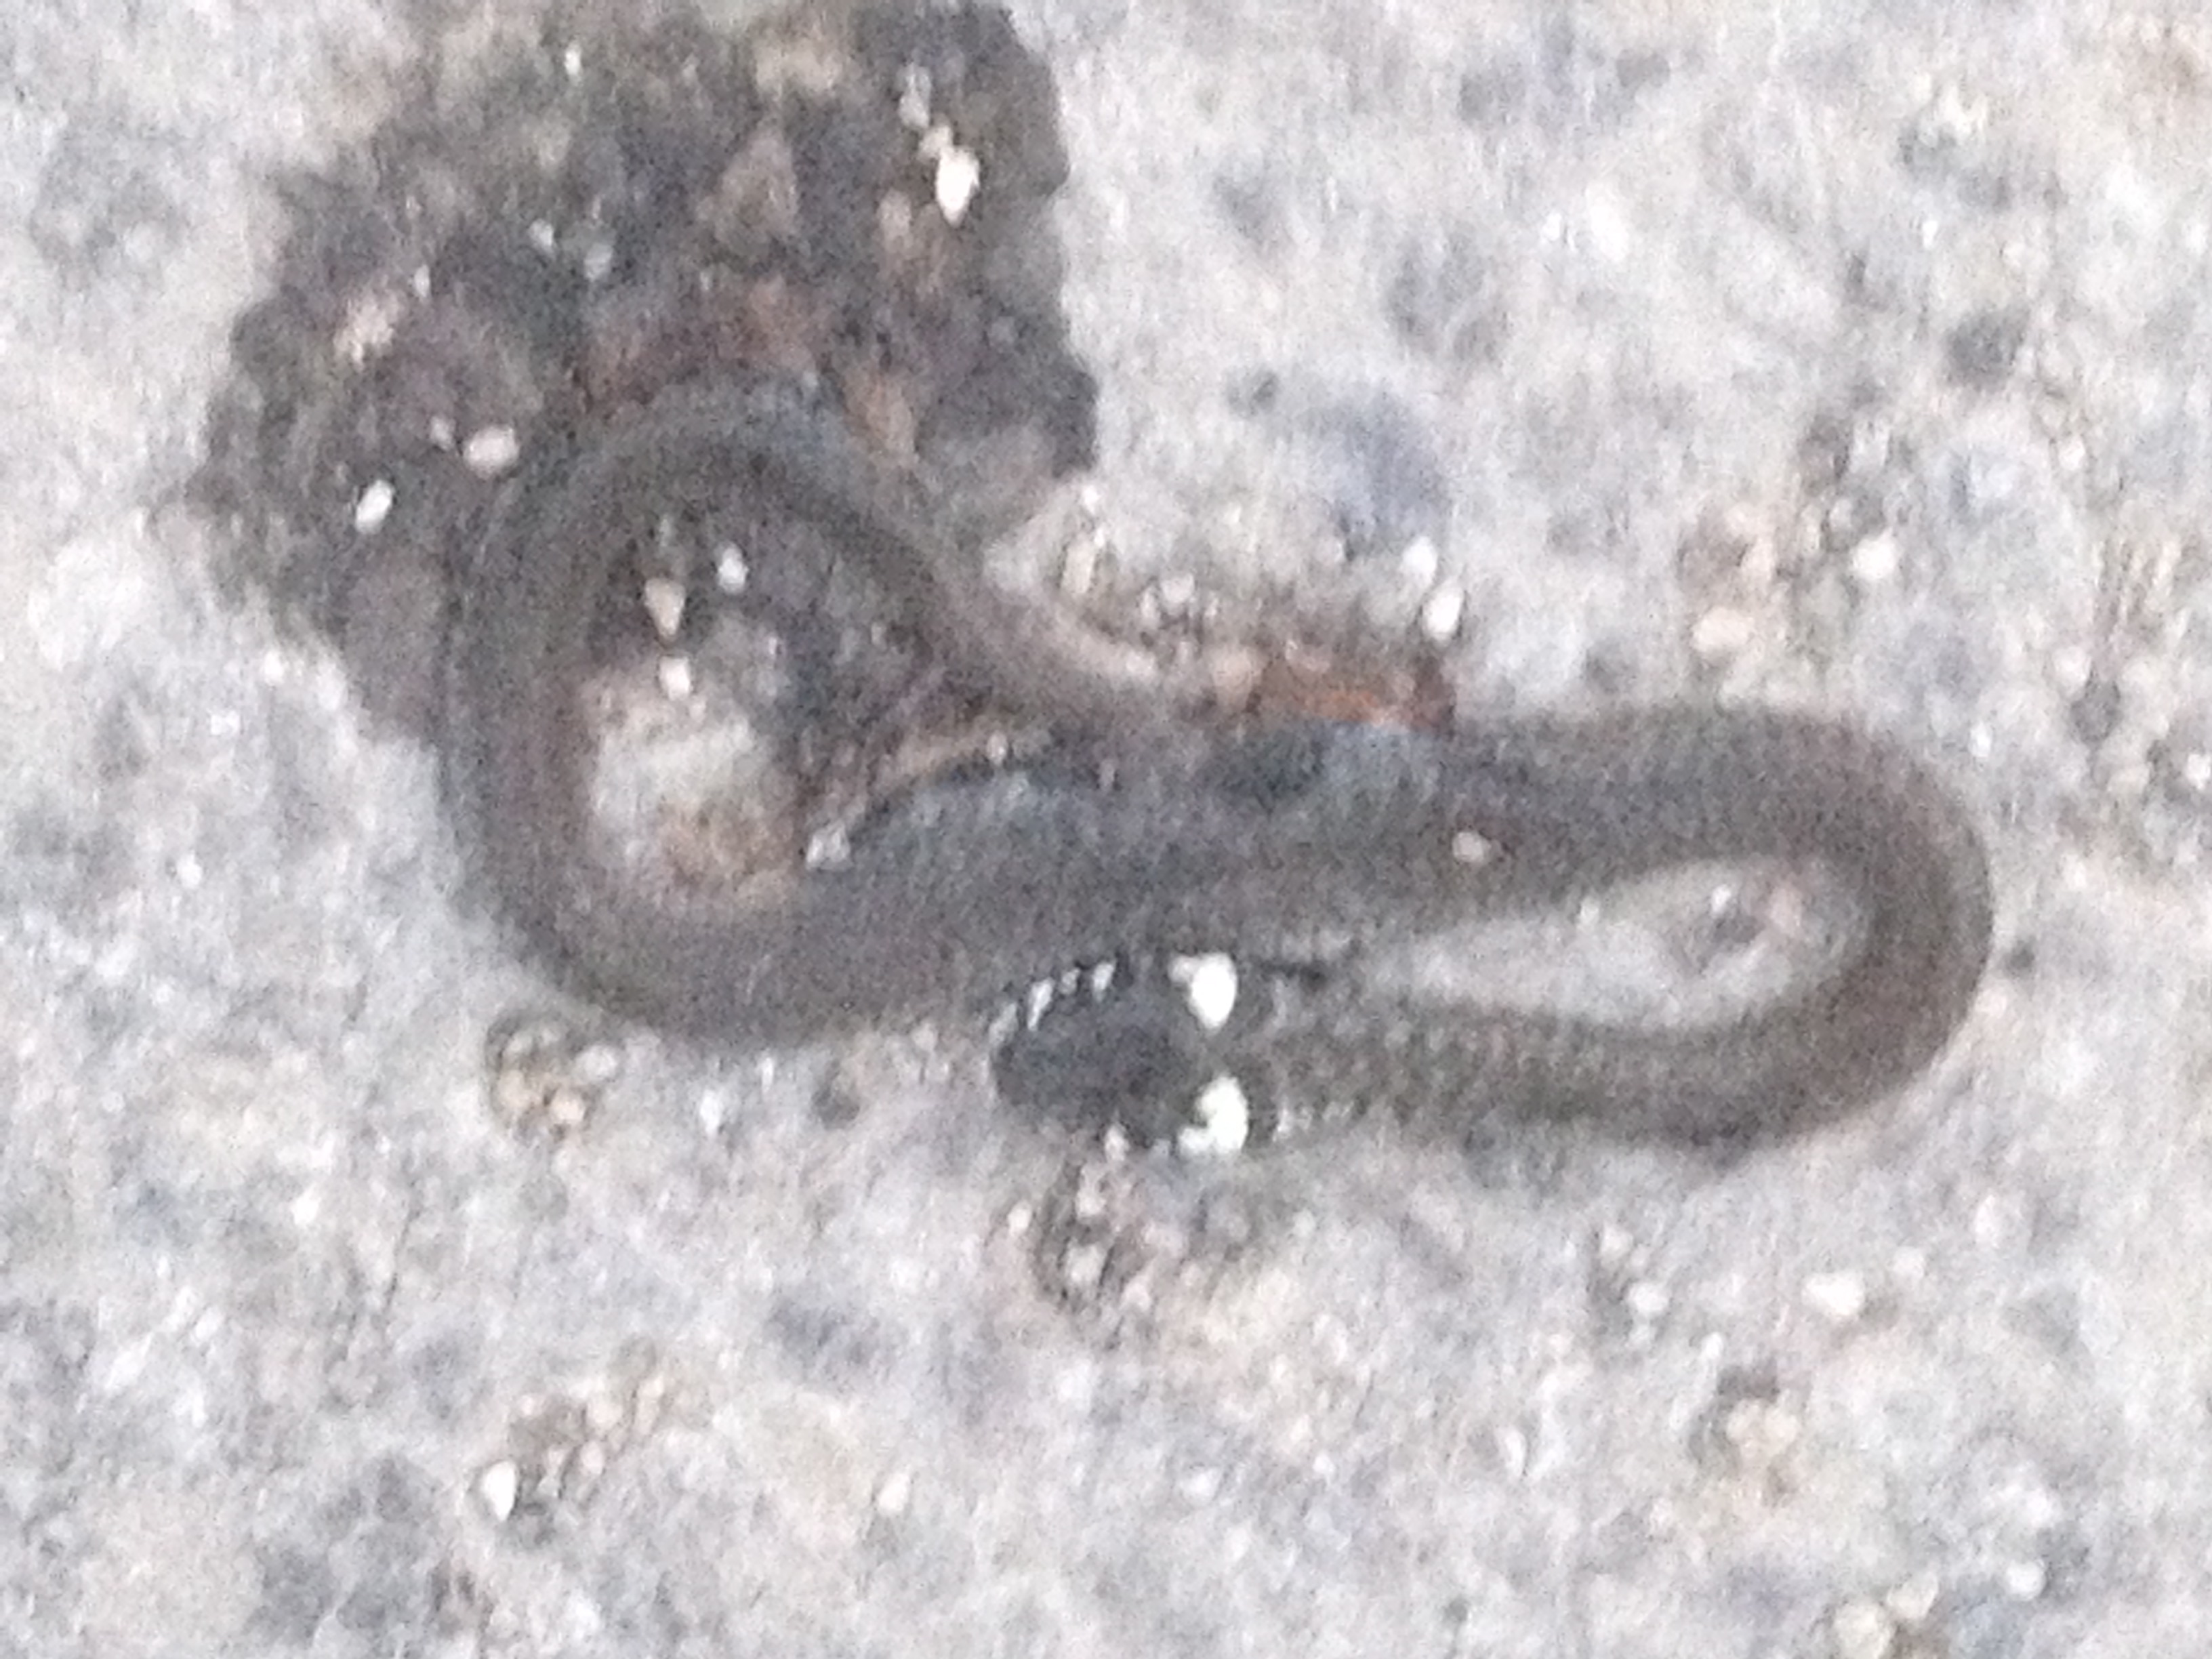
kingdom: Animalia
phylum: Chordata
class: Squamata
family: Colubridae
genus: Natrix
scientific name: Natrix natrix
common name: Grass snake
